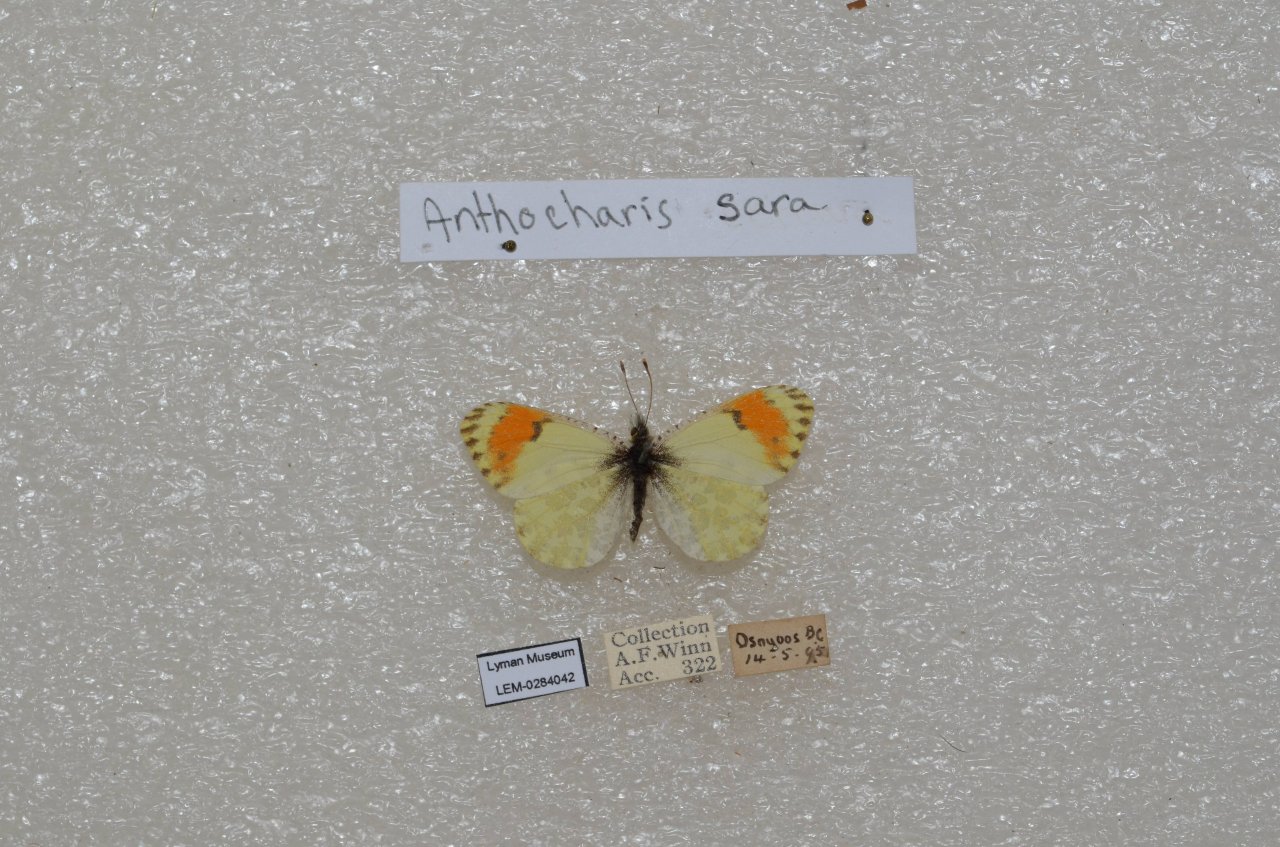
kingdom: Animalia
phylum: Arthropoda
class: Insecta
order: Lepidoptera
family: Pieridae
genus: Anthocharis
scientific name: Anthocharis sara
